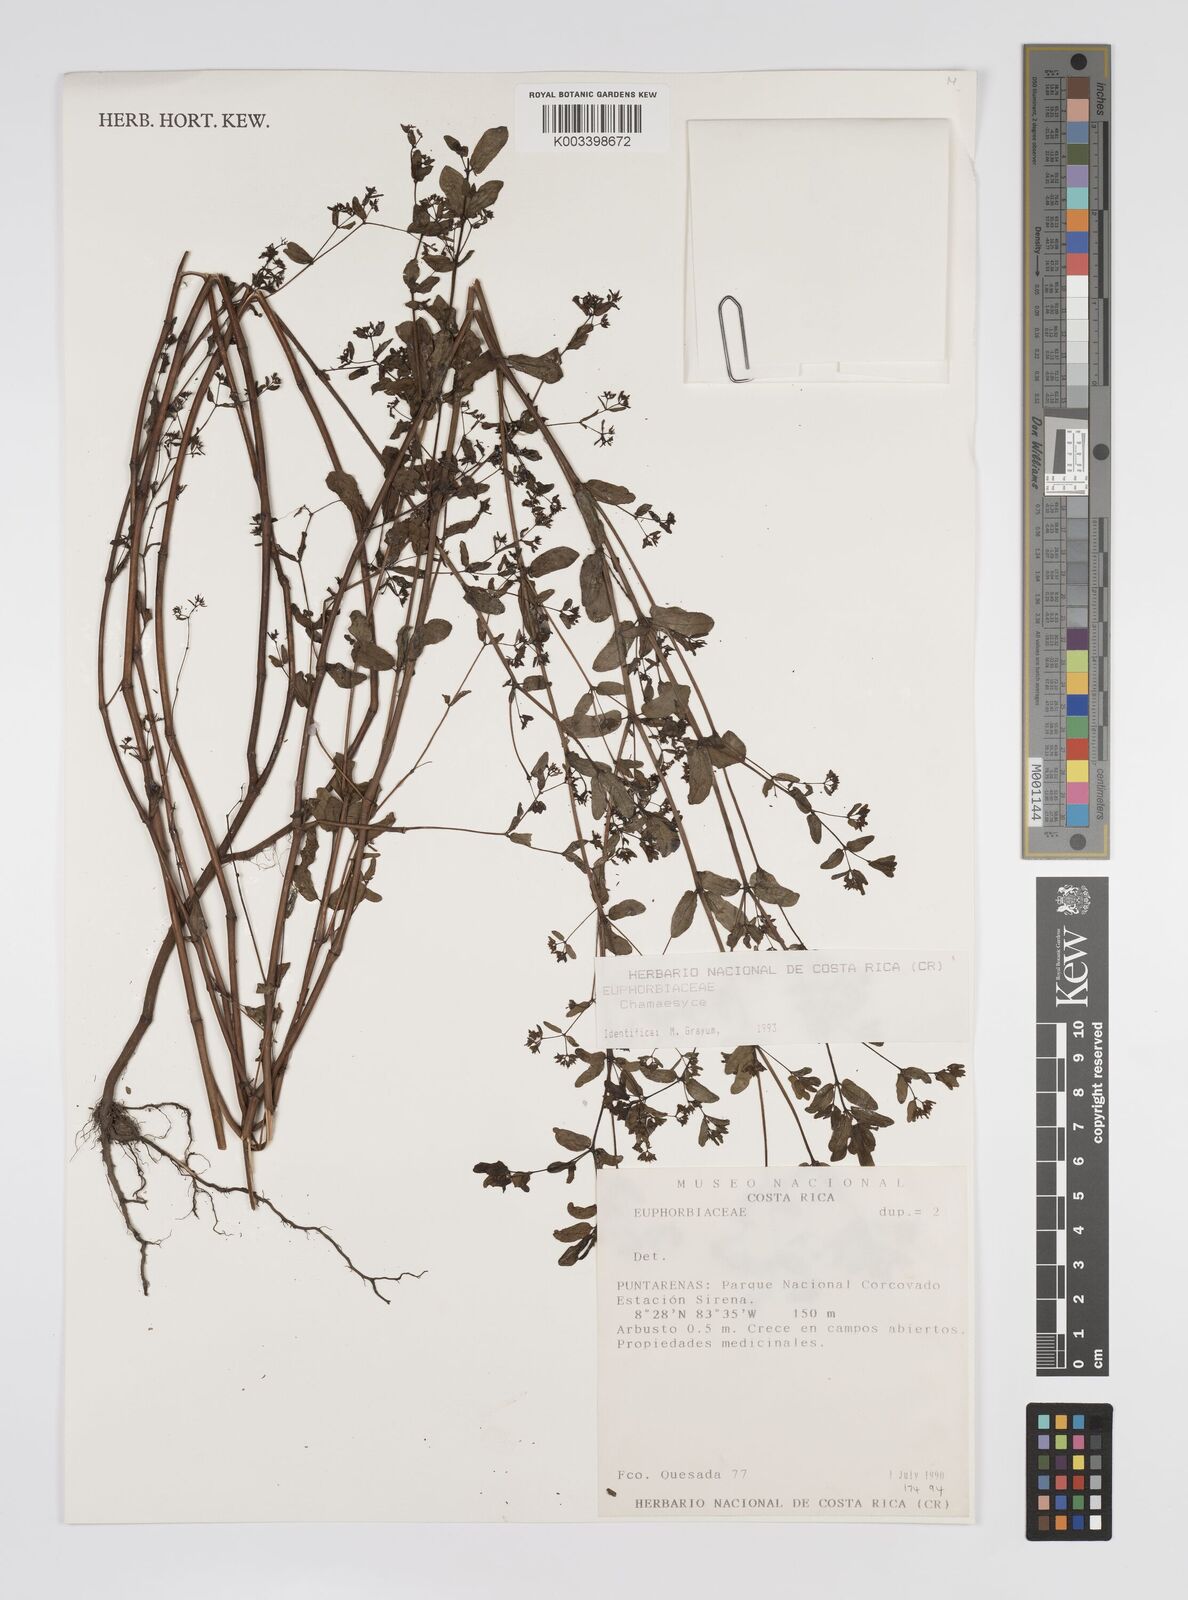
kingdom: Plantae
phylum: Tracheophyta
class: Magnoliopsida
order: Malpighiales
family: Euphorbiaceae
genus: Euphorbia
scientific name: Euphorbia
